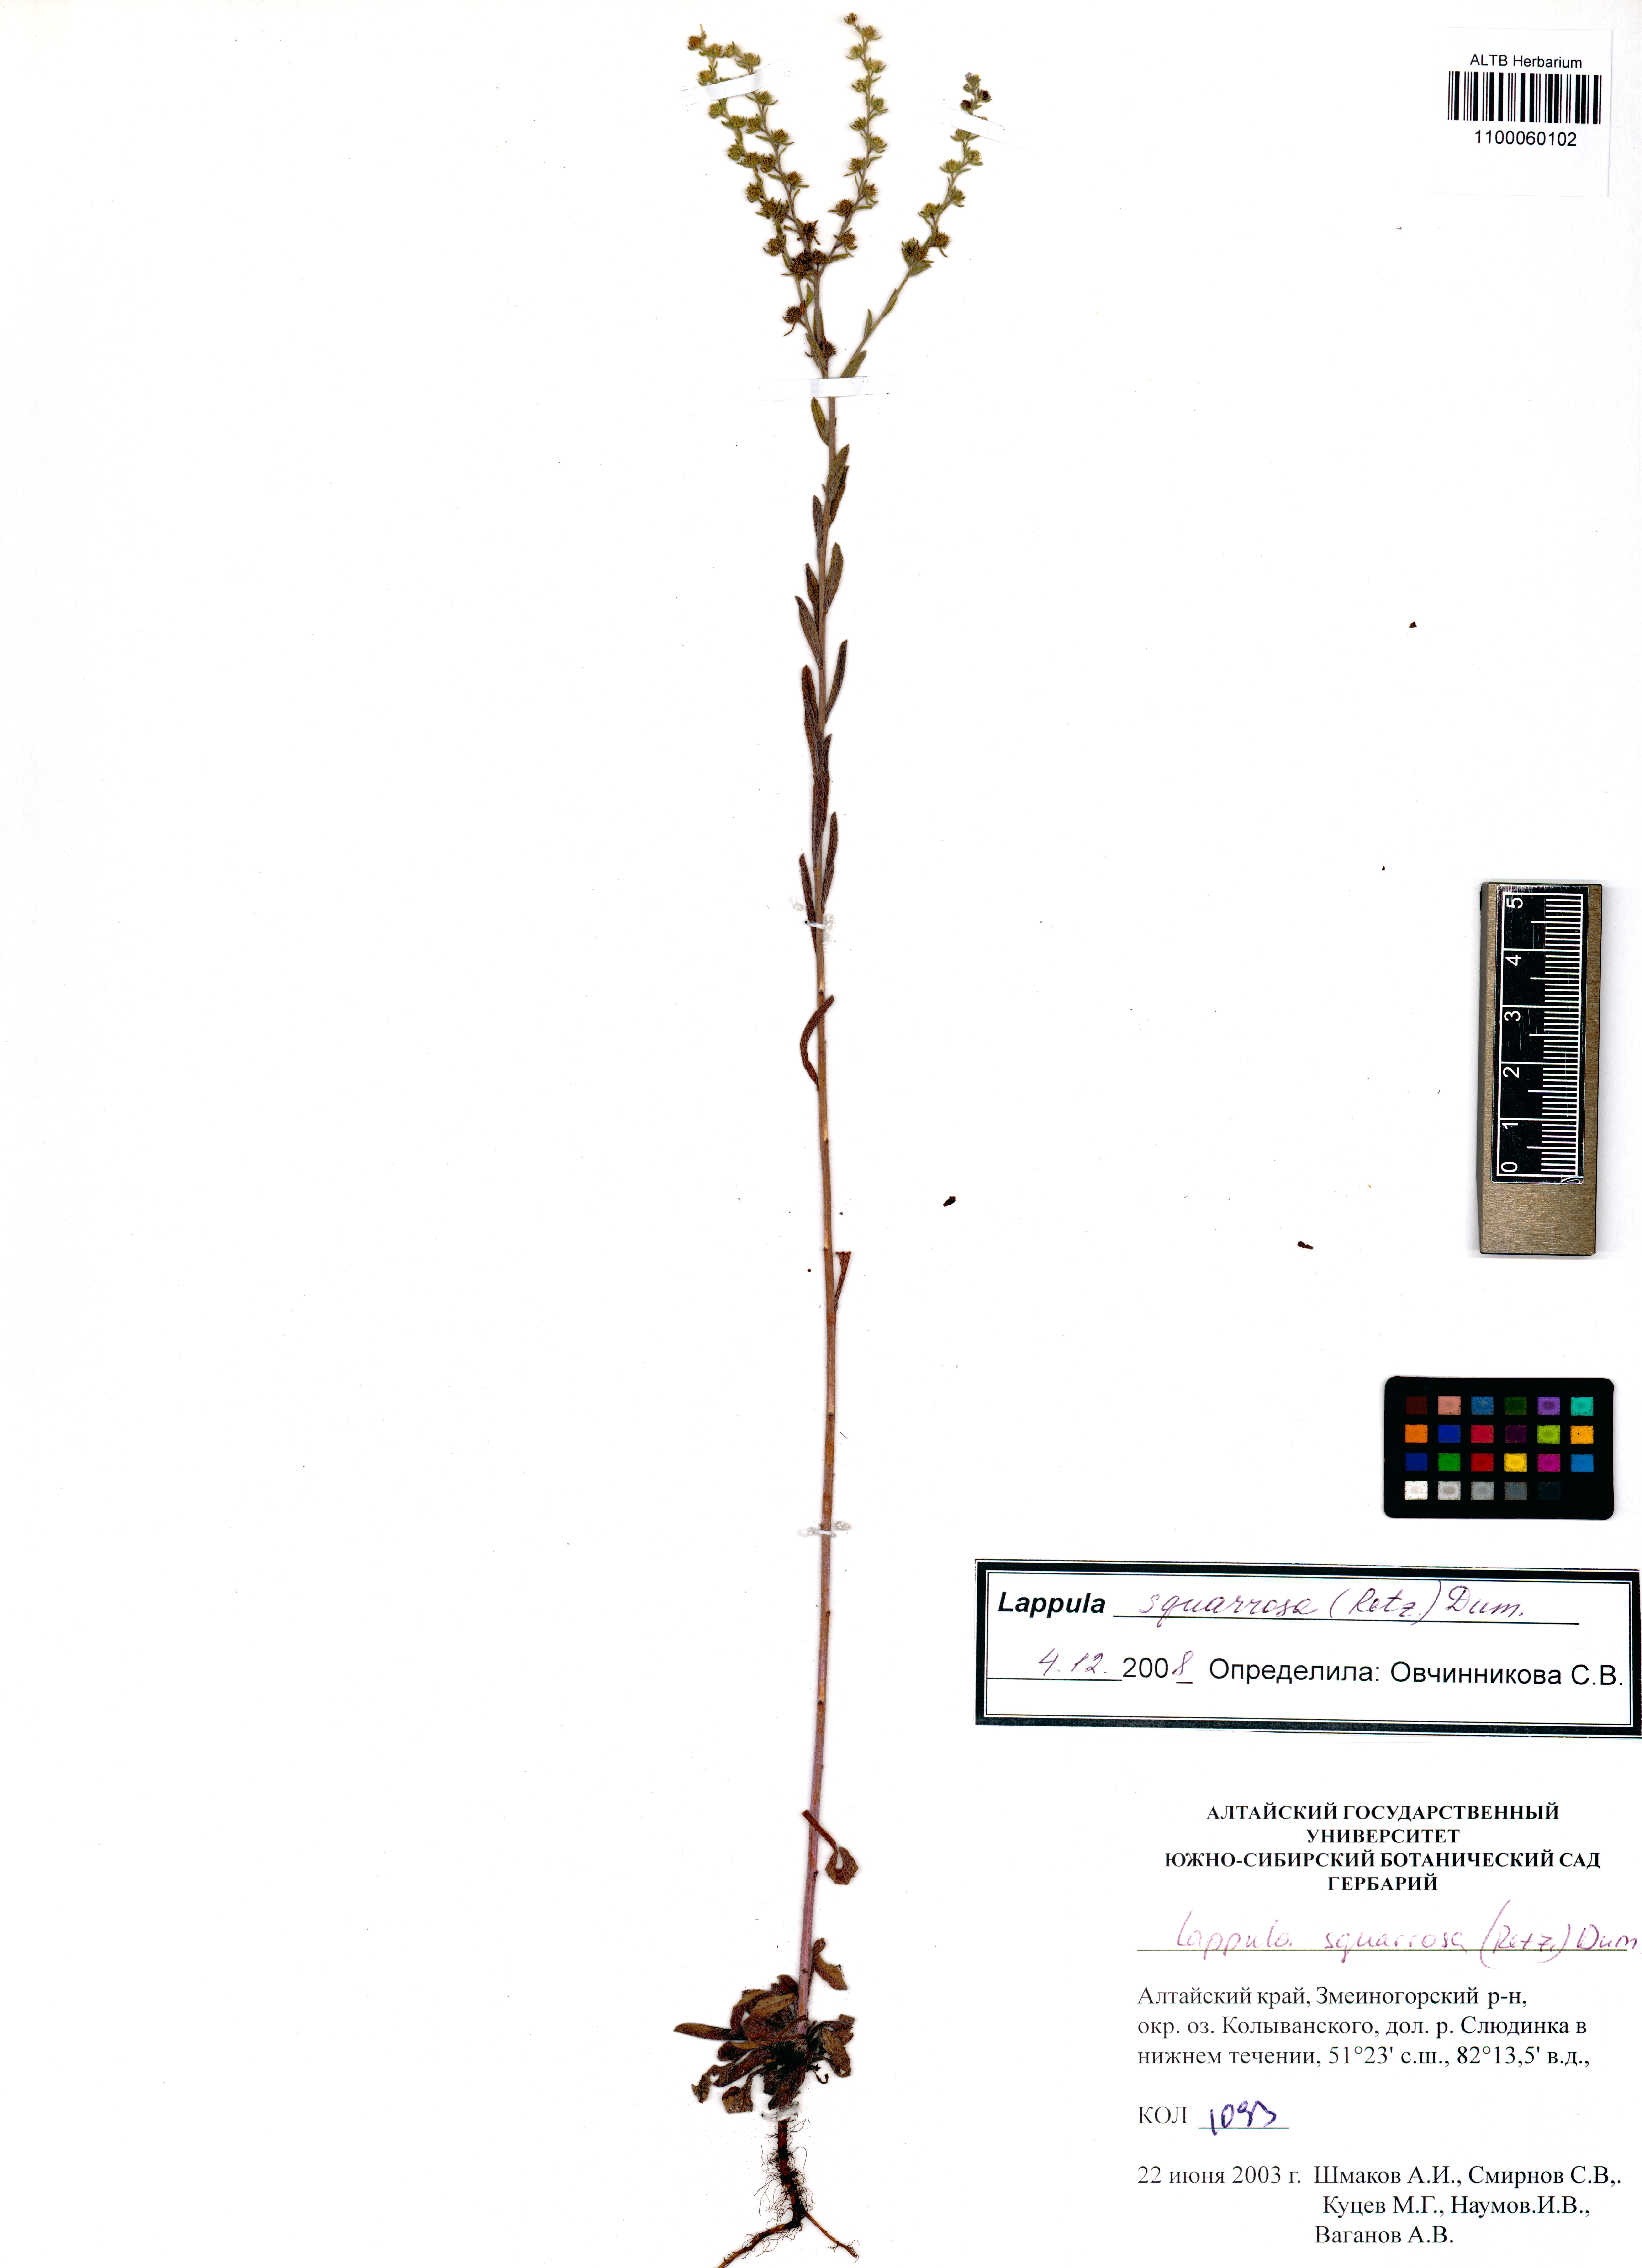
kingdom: Plantae
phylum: Tracheophyta
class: Magnoliopsida
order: Boraginales
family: Boraginaceae
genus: Lappula
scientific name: Lappula squarrosa
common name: European stickseed
